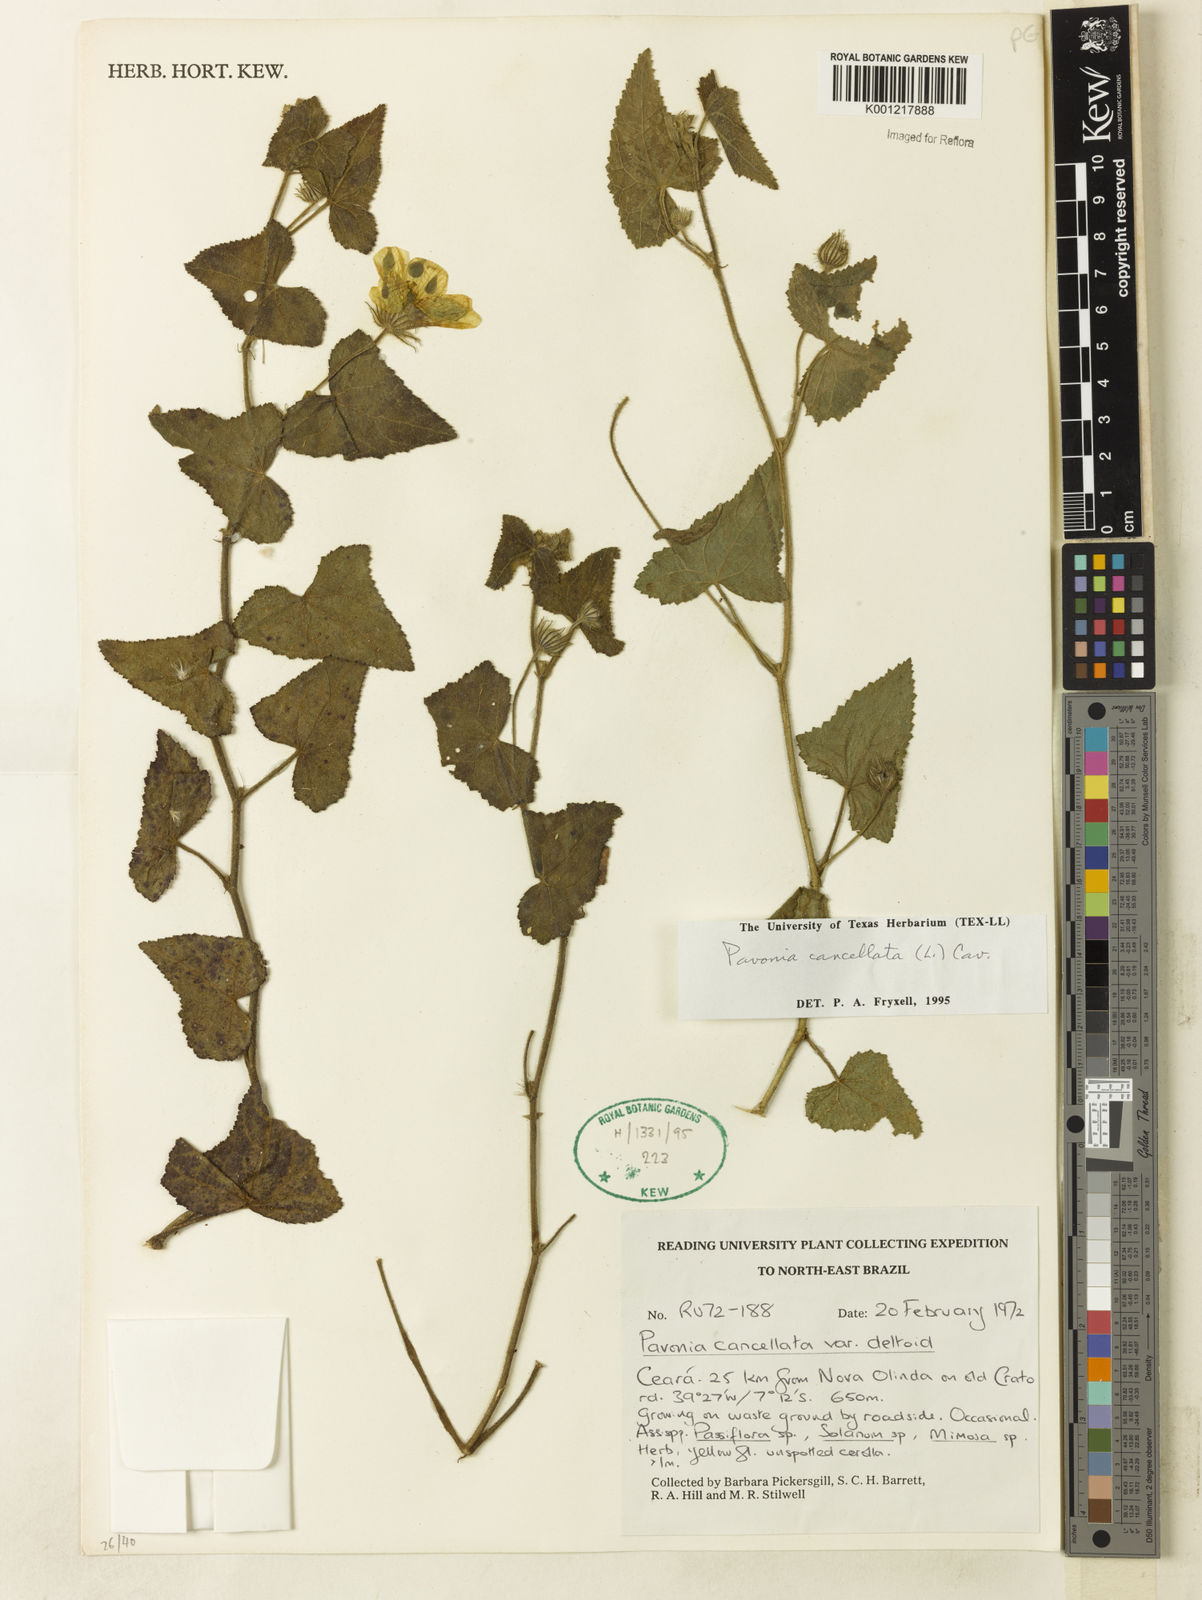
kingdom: Plantae
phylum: Tracheophyta
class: Magnoliopsida
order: Malvales
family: Malvaceae
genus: Pavonia
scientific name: Pavonia cancellata
